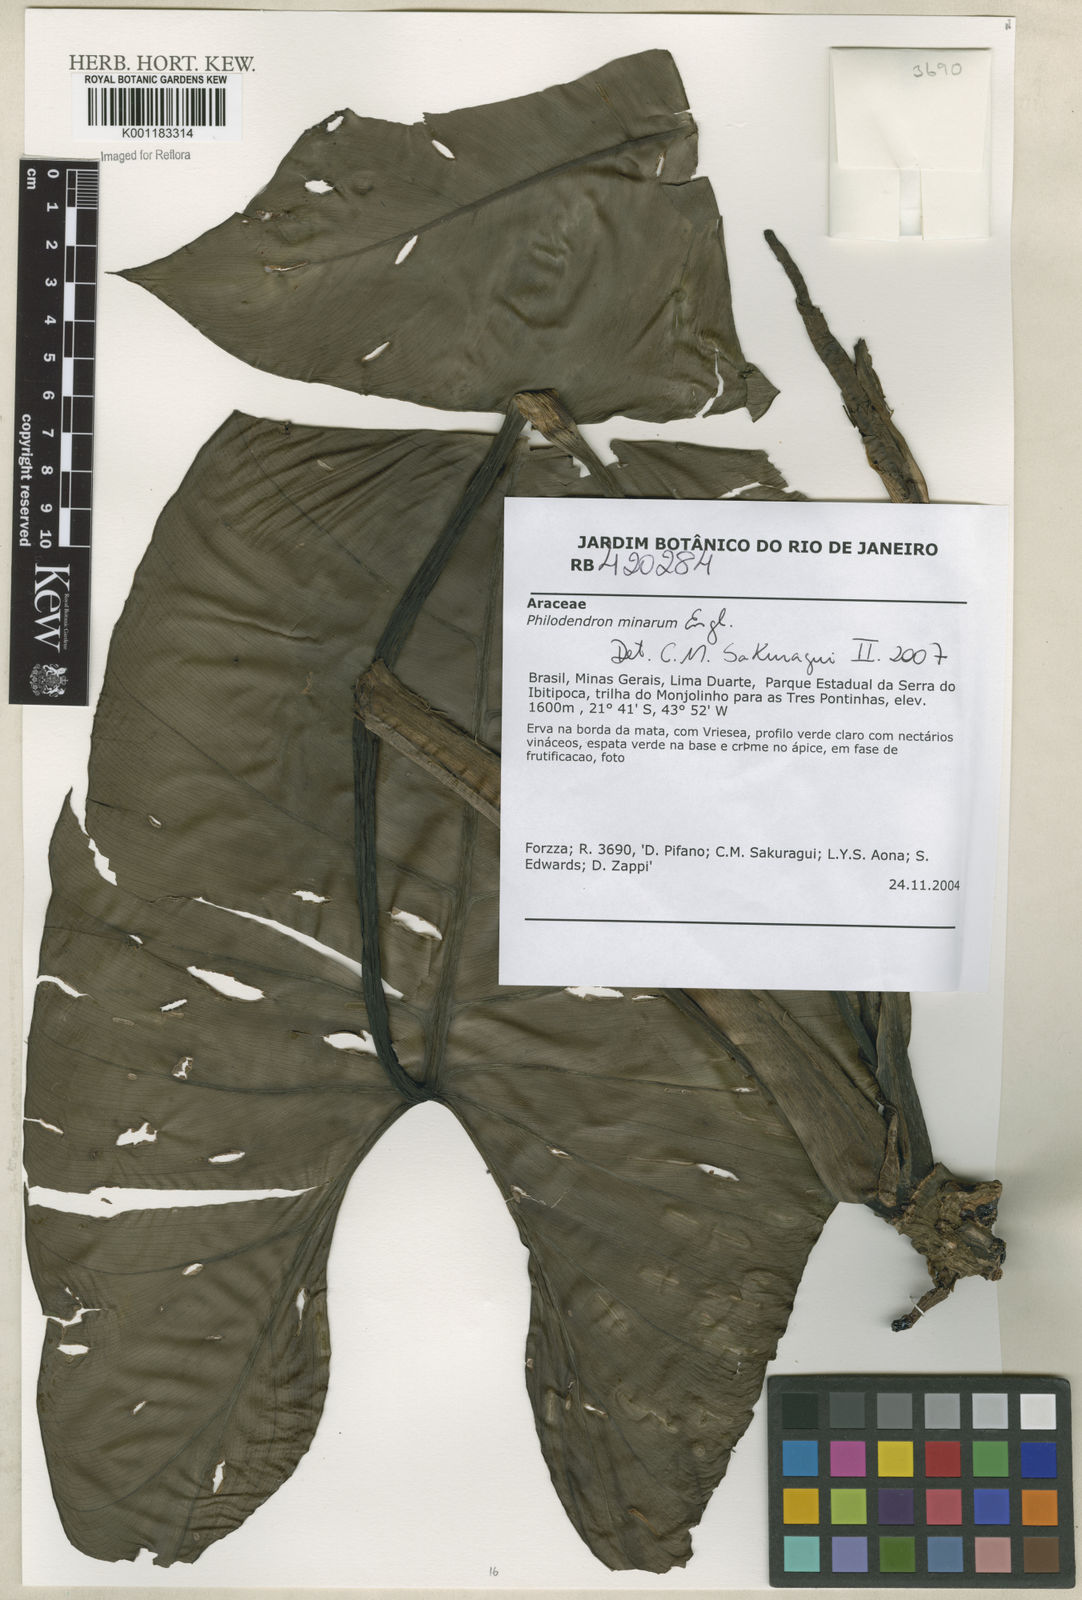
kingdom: Plantae
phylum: Tracheophyta
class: Liliopsida
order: Alismatales
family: Araceae
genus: Philodendron
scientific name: Philodendron minarum
